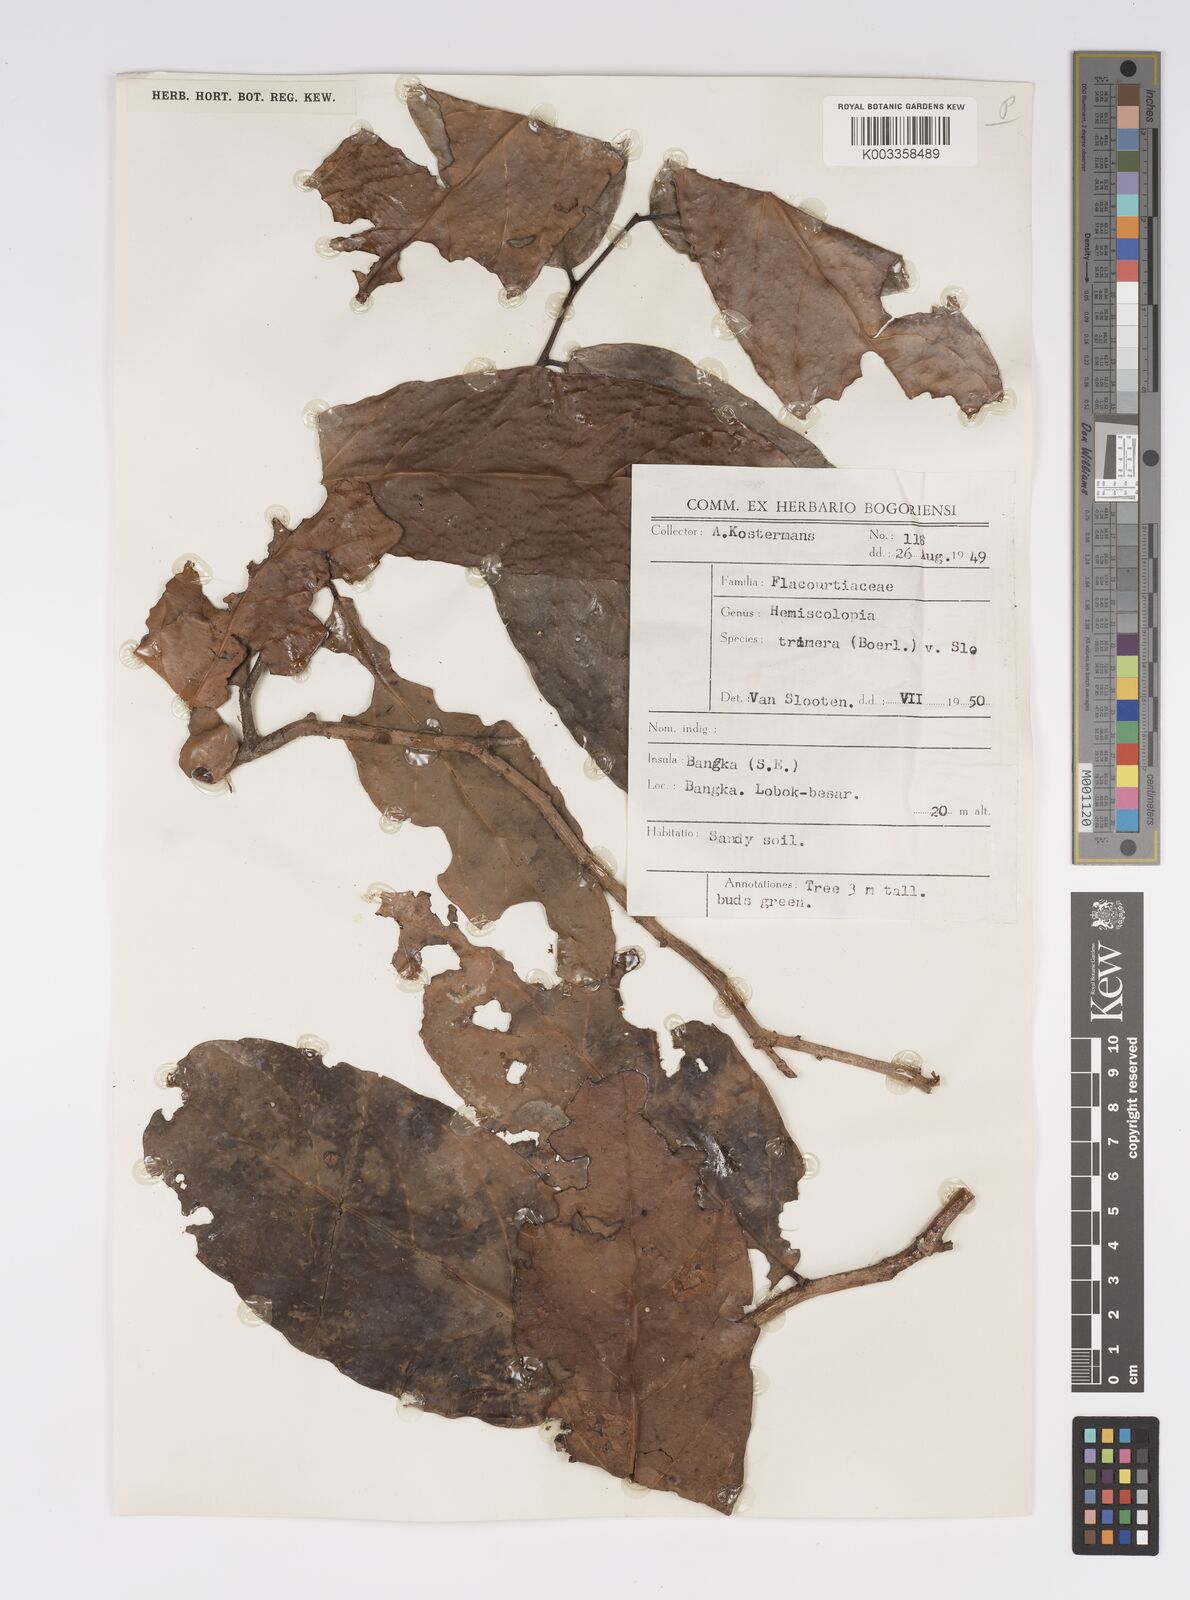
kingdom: Plantae
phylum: Tracheophyta
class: Magnoliopsida
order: Malpighiales
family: Salicaceae
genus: Hemiscolopia
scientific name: Hemiscolopia trimera
